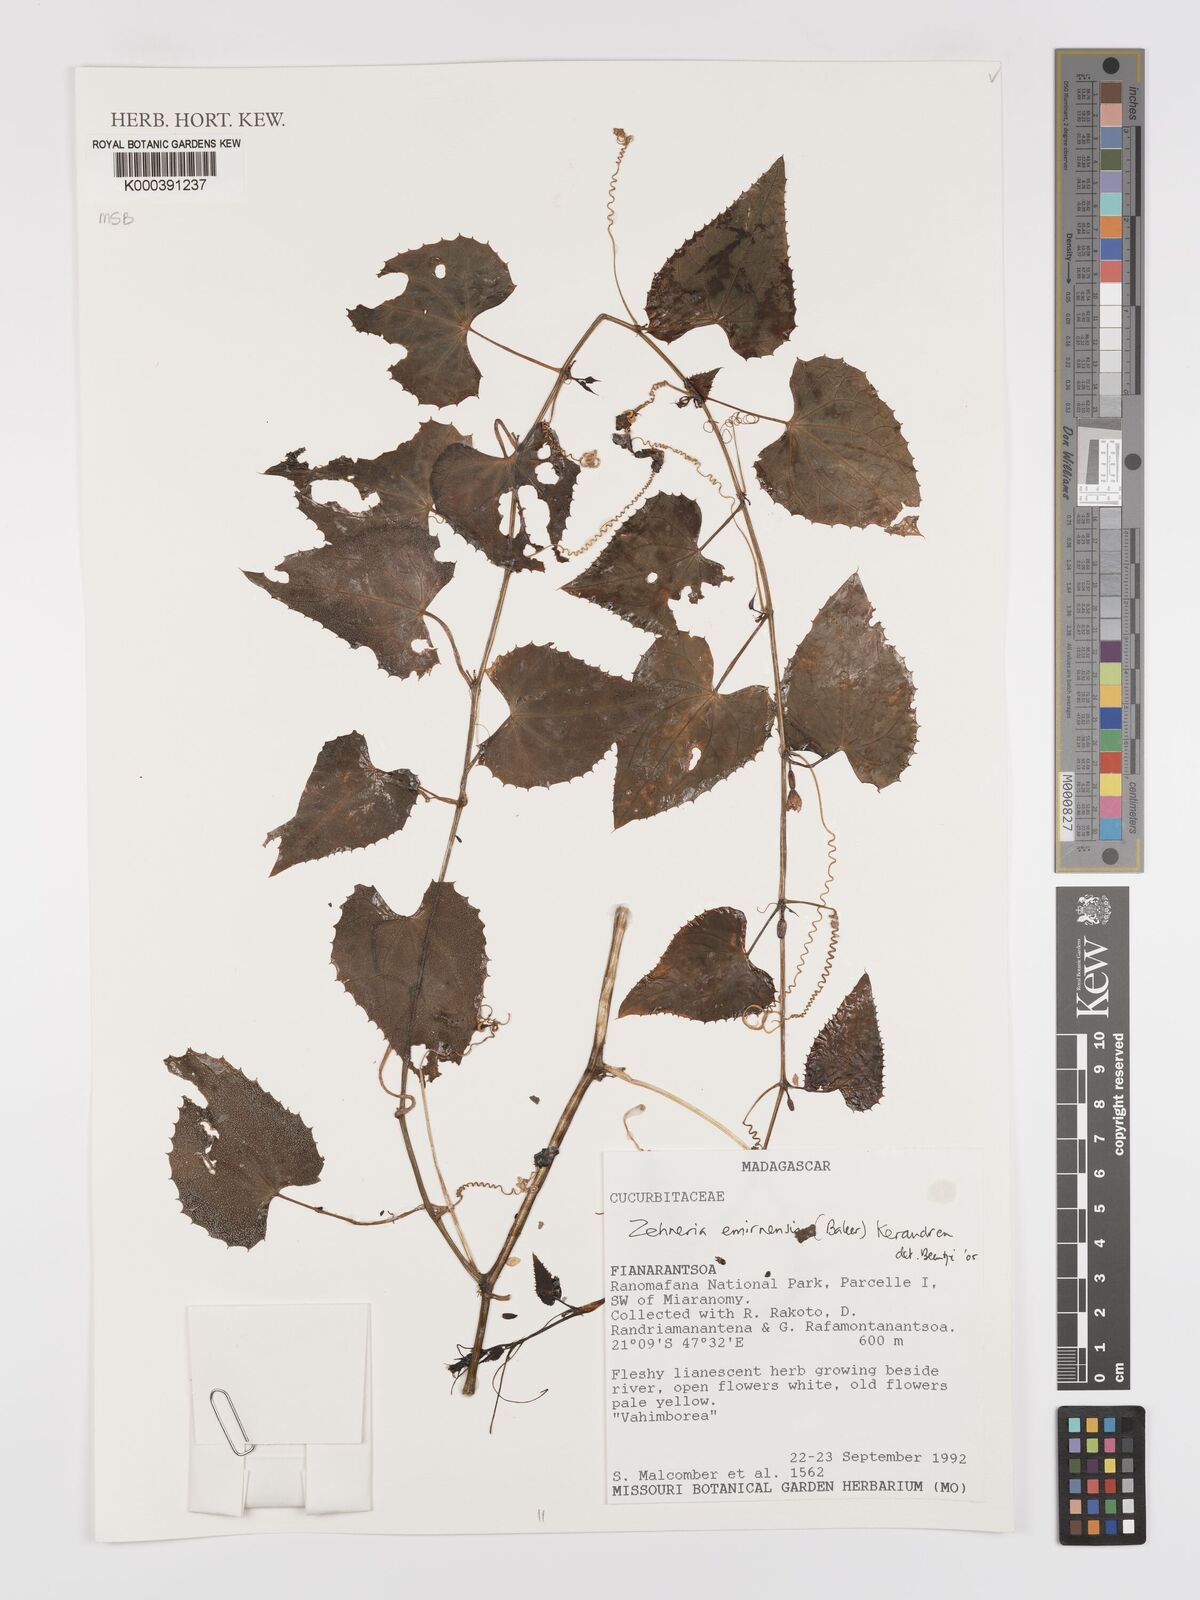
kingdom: Plantae
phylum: Tracheophyta
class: Magnoliopsida
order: Cucurbitales
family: Cucurbitaceae
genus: Zehneria
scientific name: Zehneria emirnensis
